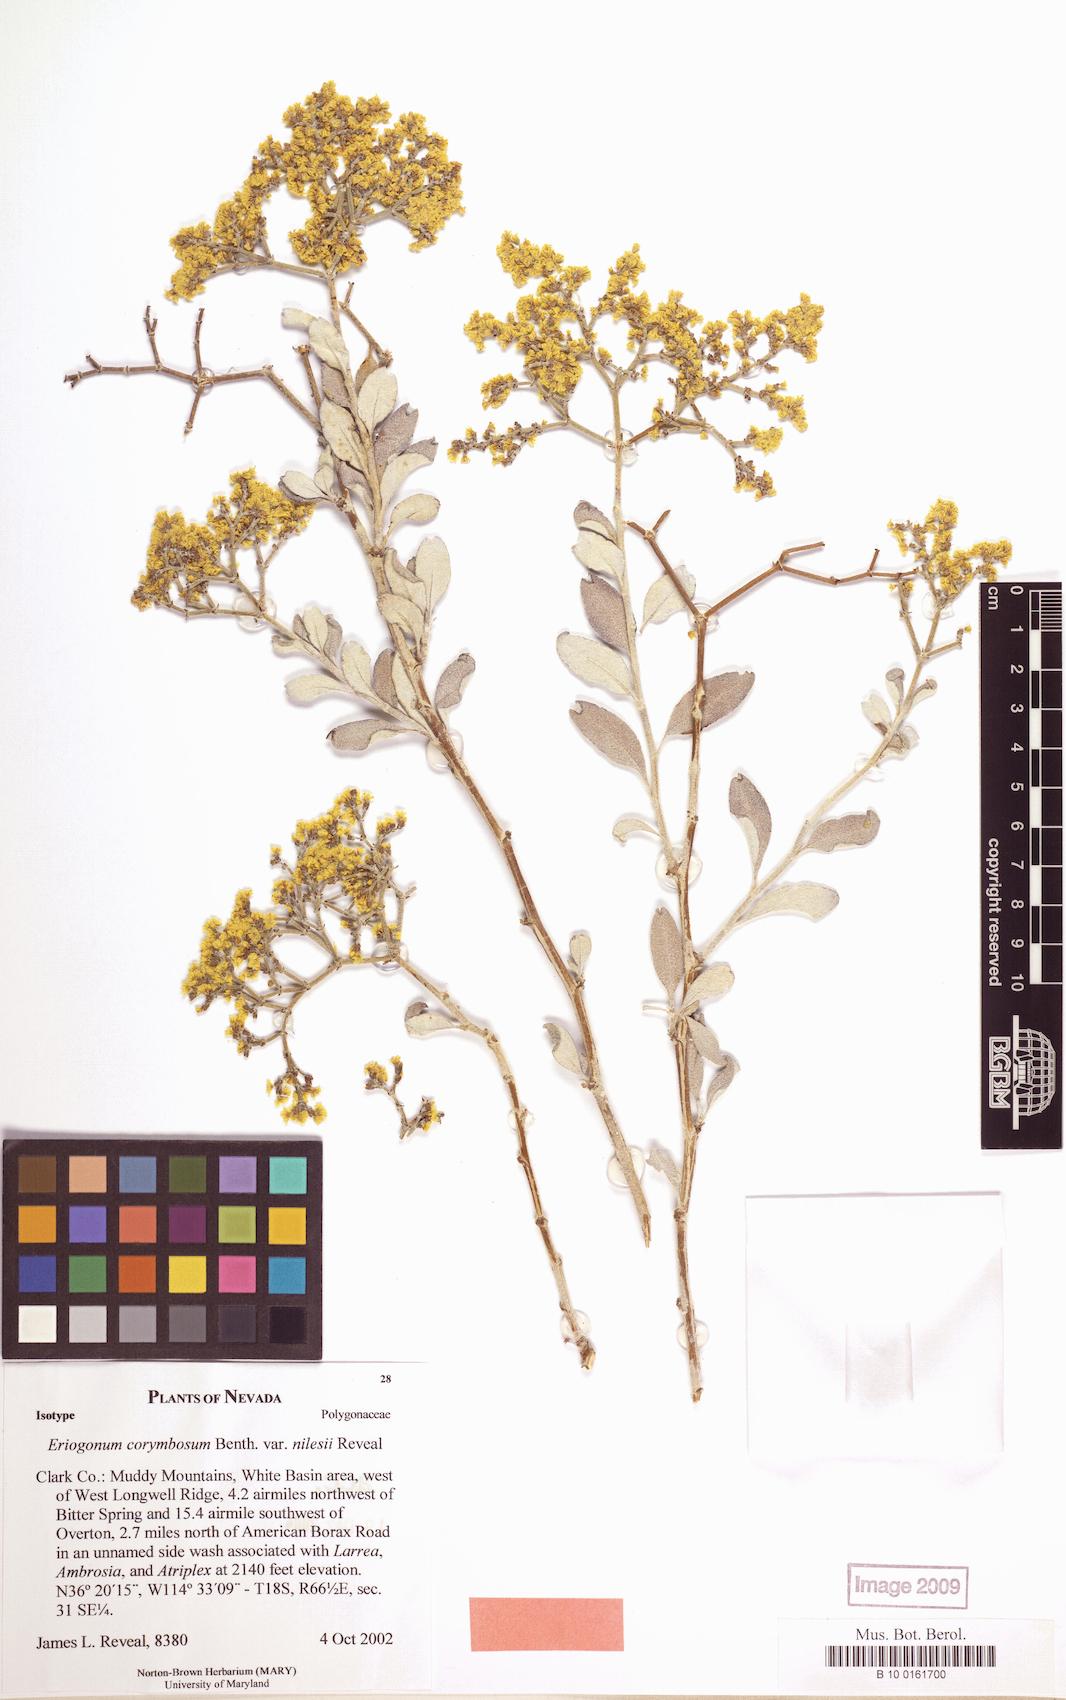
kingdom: Plantae
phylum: Tracheophyta
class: Magnoliopsida
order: Caryophyllales
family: Polygonaceae
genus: Eriogonum
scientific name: Eriogonum corymbosum
